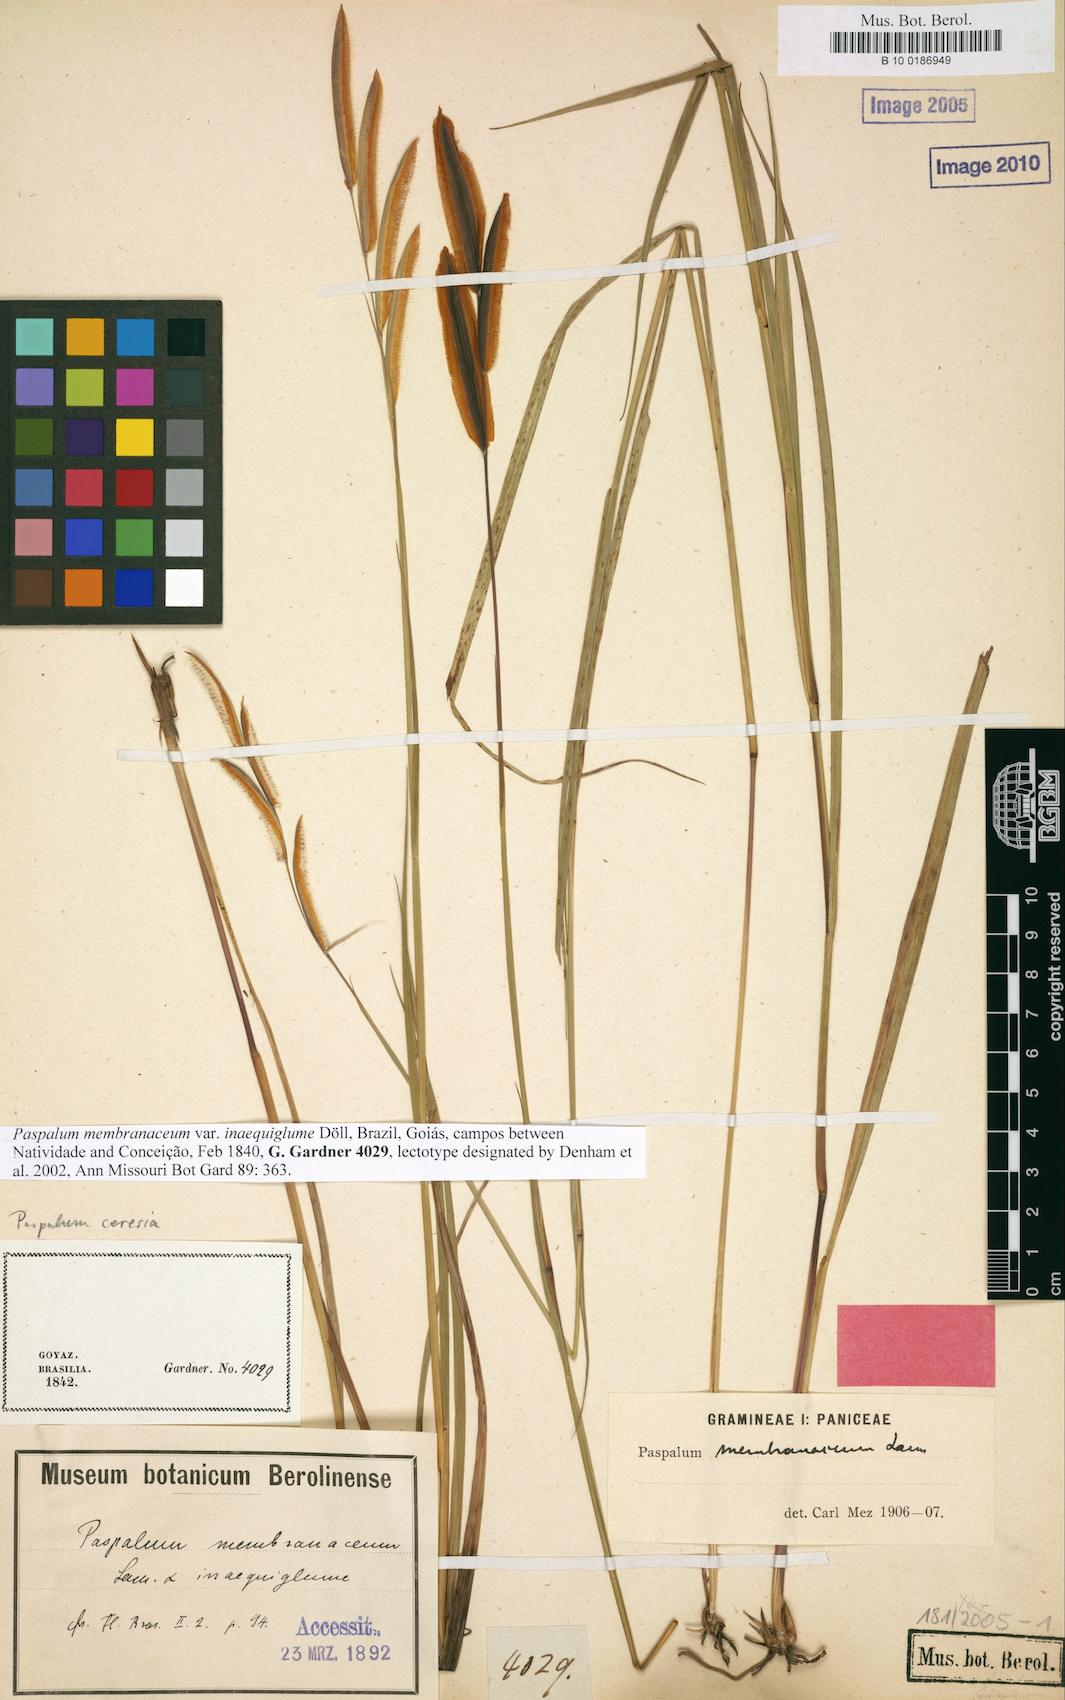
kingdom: Plantae
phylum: Tracheophyta
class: Liliopsida
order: Poales
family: Poaceae
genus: Paspalum
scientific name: Paspalum ceresia
